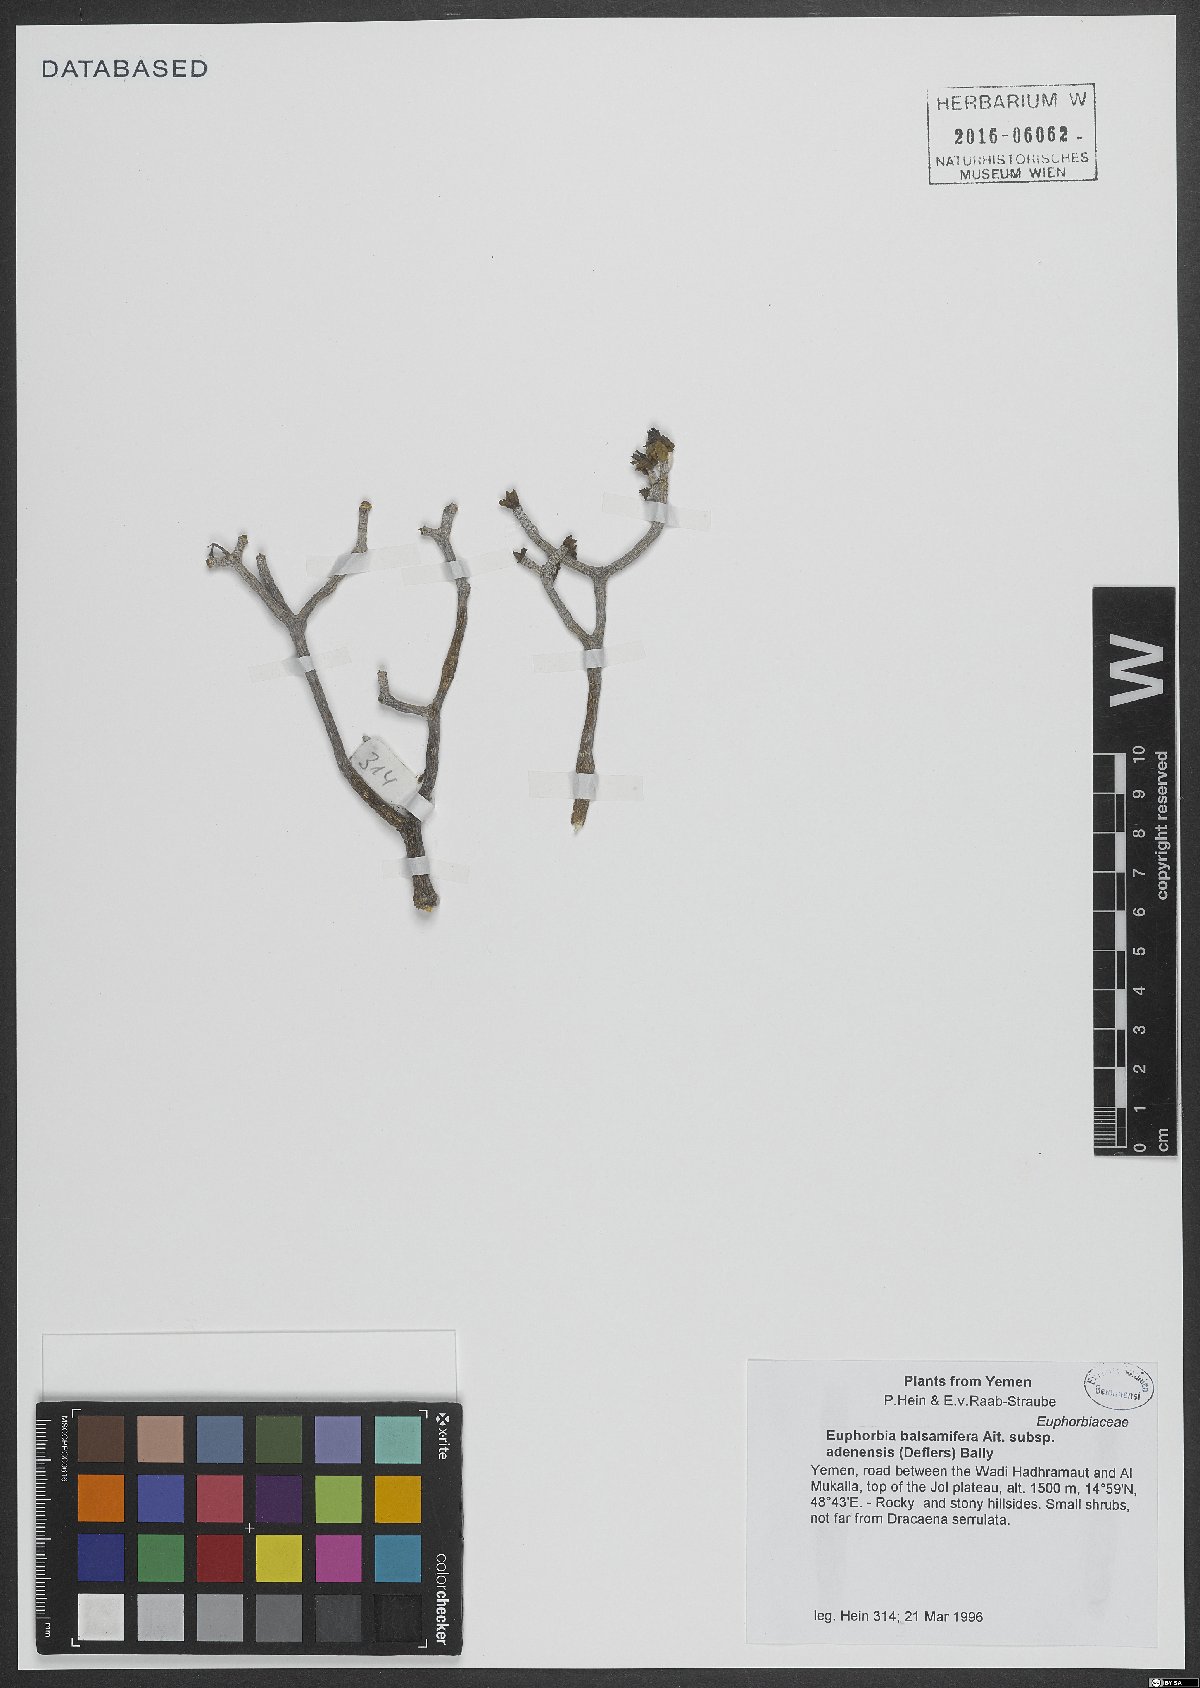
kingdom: Plantae
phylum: Tracheophyta
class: Magnoliopsida
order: Malpighiales
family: Euphorbiaceae
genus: Euphorbia
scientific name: Euphorbia adenensis
